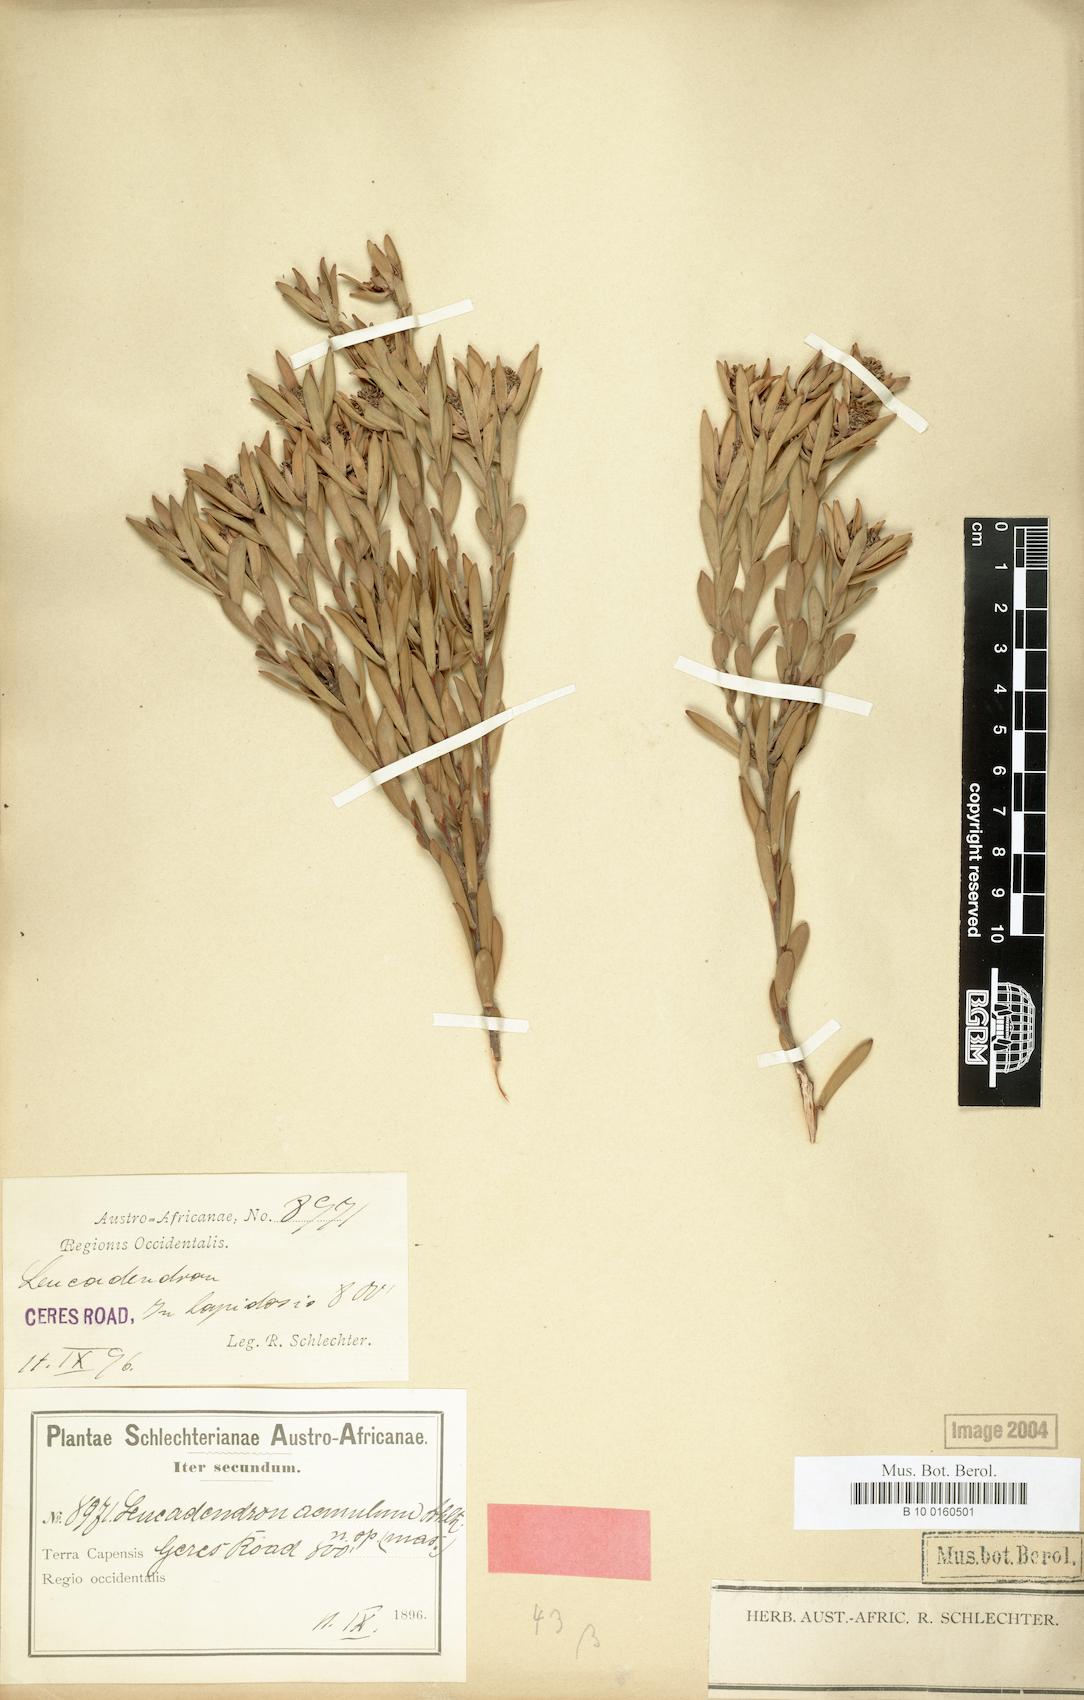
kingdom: Plantae
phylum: Tracheophyta
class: Magnoliopsida
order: Proteales
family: Proteaceae
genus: Leucadendron
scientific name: Leucadendron lanigerum
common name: Shale conebush
